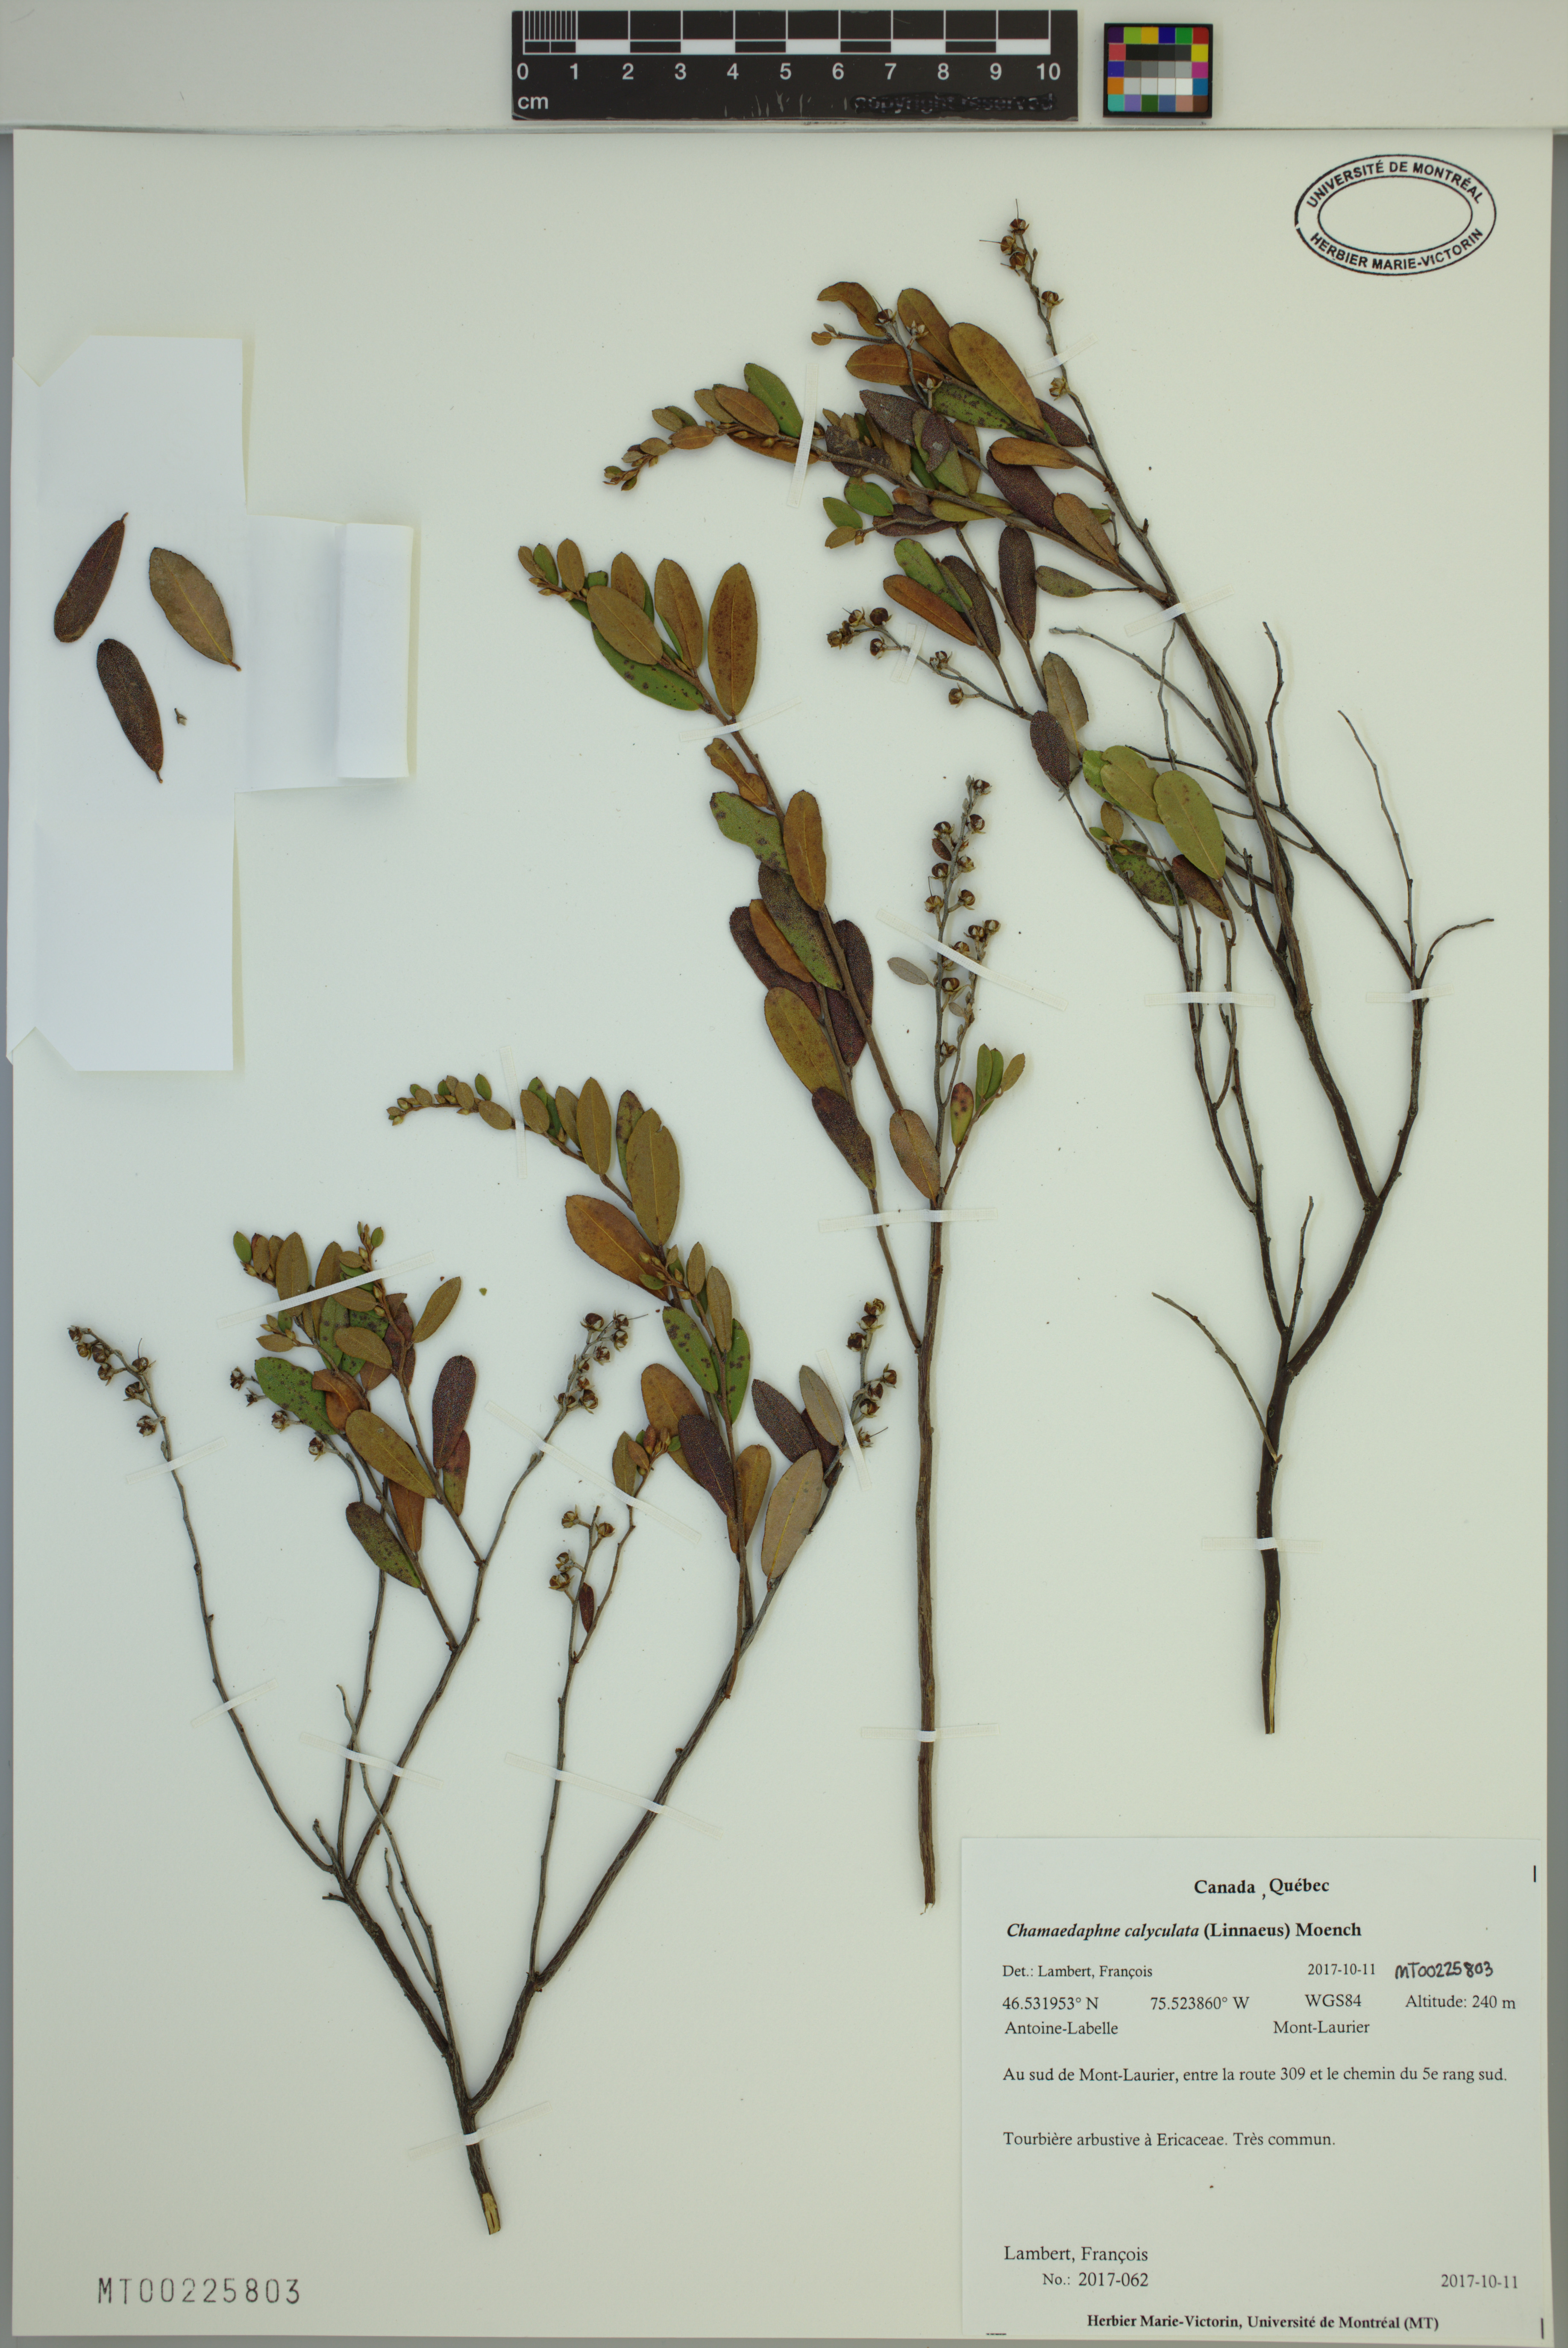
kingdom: Plantae
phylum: Tracheophyta
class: Magnoliopsida
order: Ericales
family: Ericaceae
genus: Chamaedaphne
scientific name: Chamaedaphne calyculata
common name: Leatherleaf
